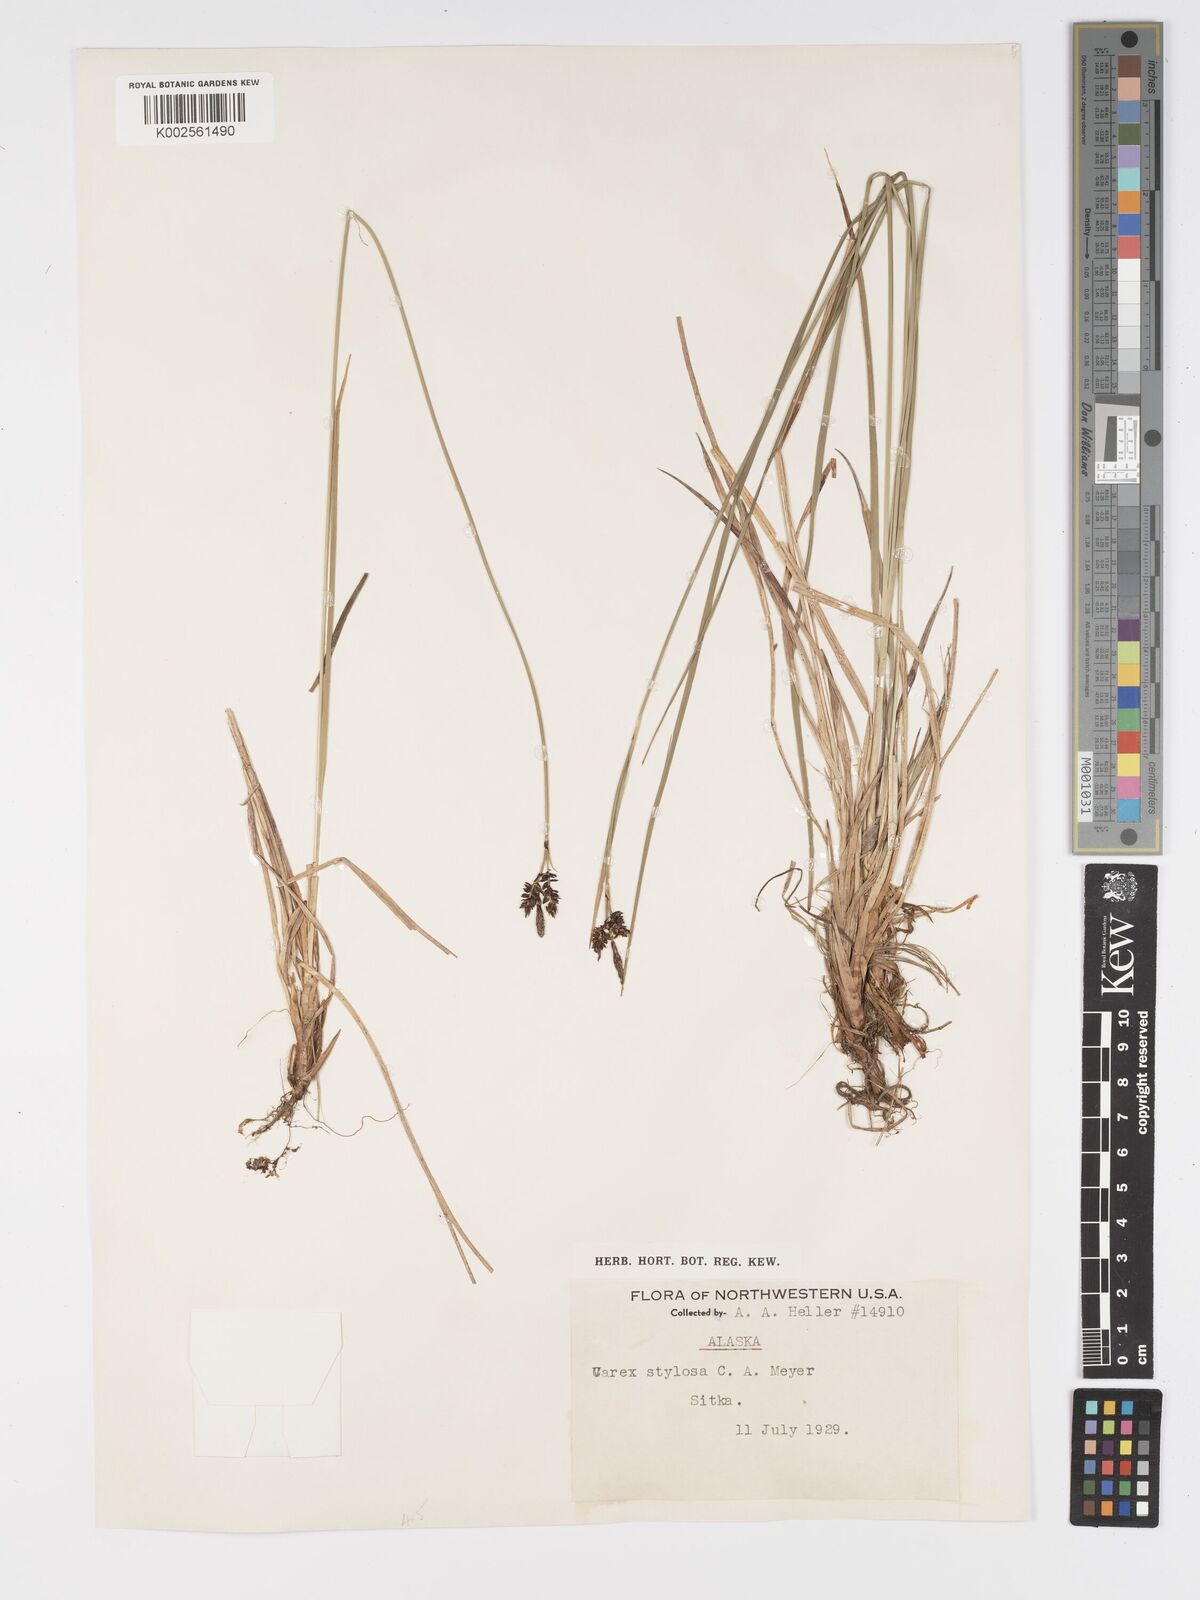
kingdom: Plantae
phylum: Tracheophyta
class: Liliopsida
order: Poales
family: Cyperaceae
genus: Carex
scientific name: Carex stylosa
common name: Long-styled sedge
